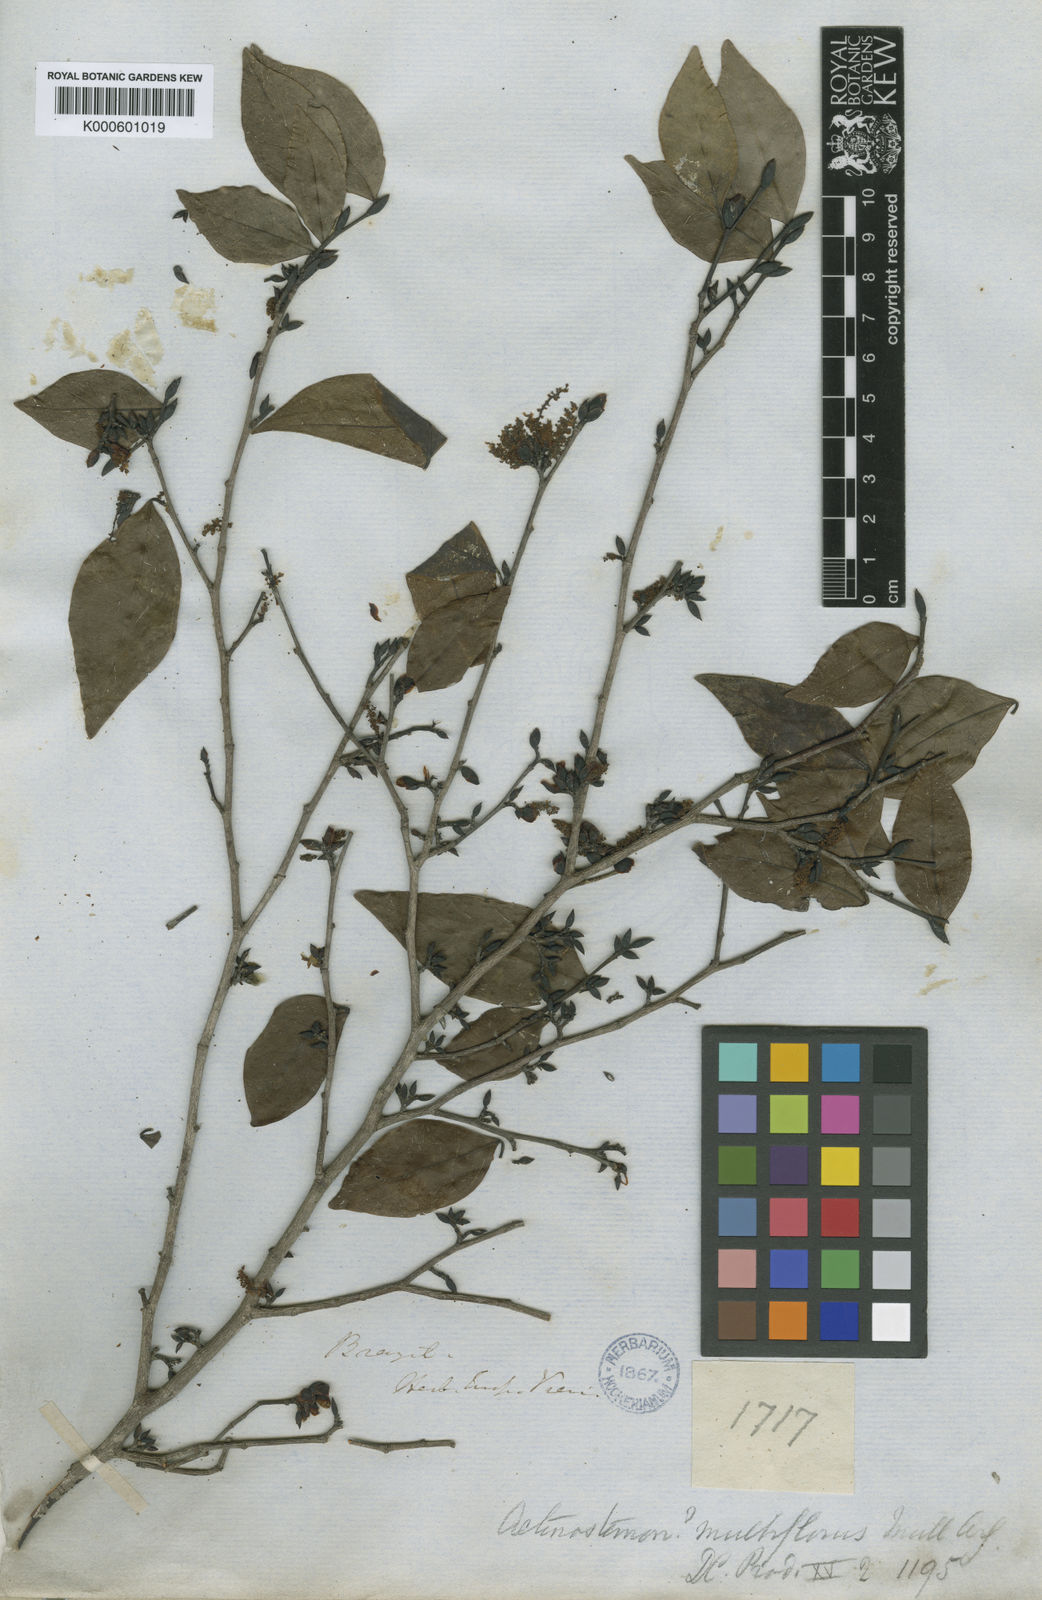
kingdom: Plantae
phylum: Tracheophyta
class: Magnoliopsida
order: Malpighiales
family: Euphorbiaceae
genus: Actinostemon
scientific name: Actinostemon
